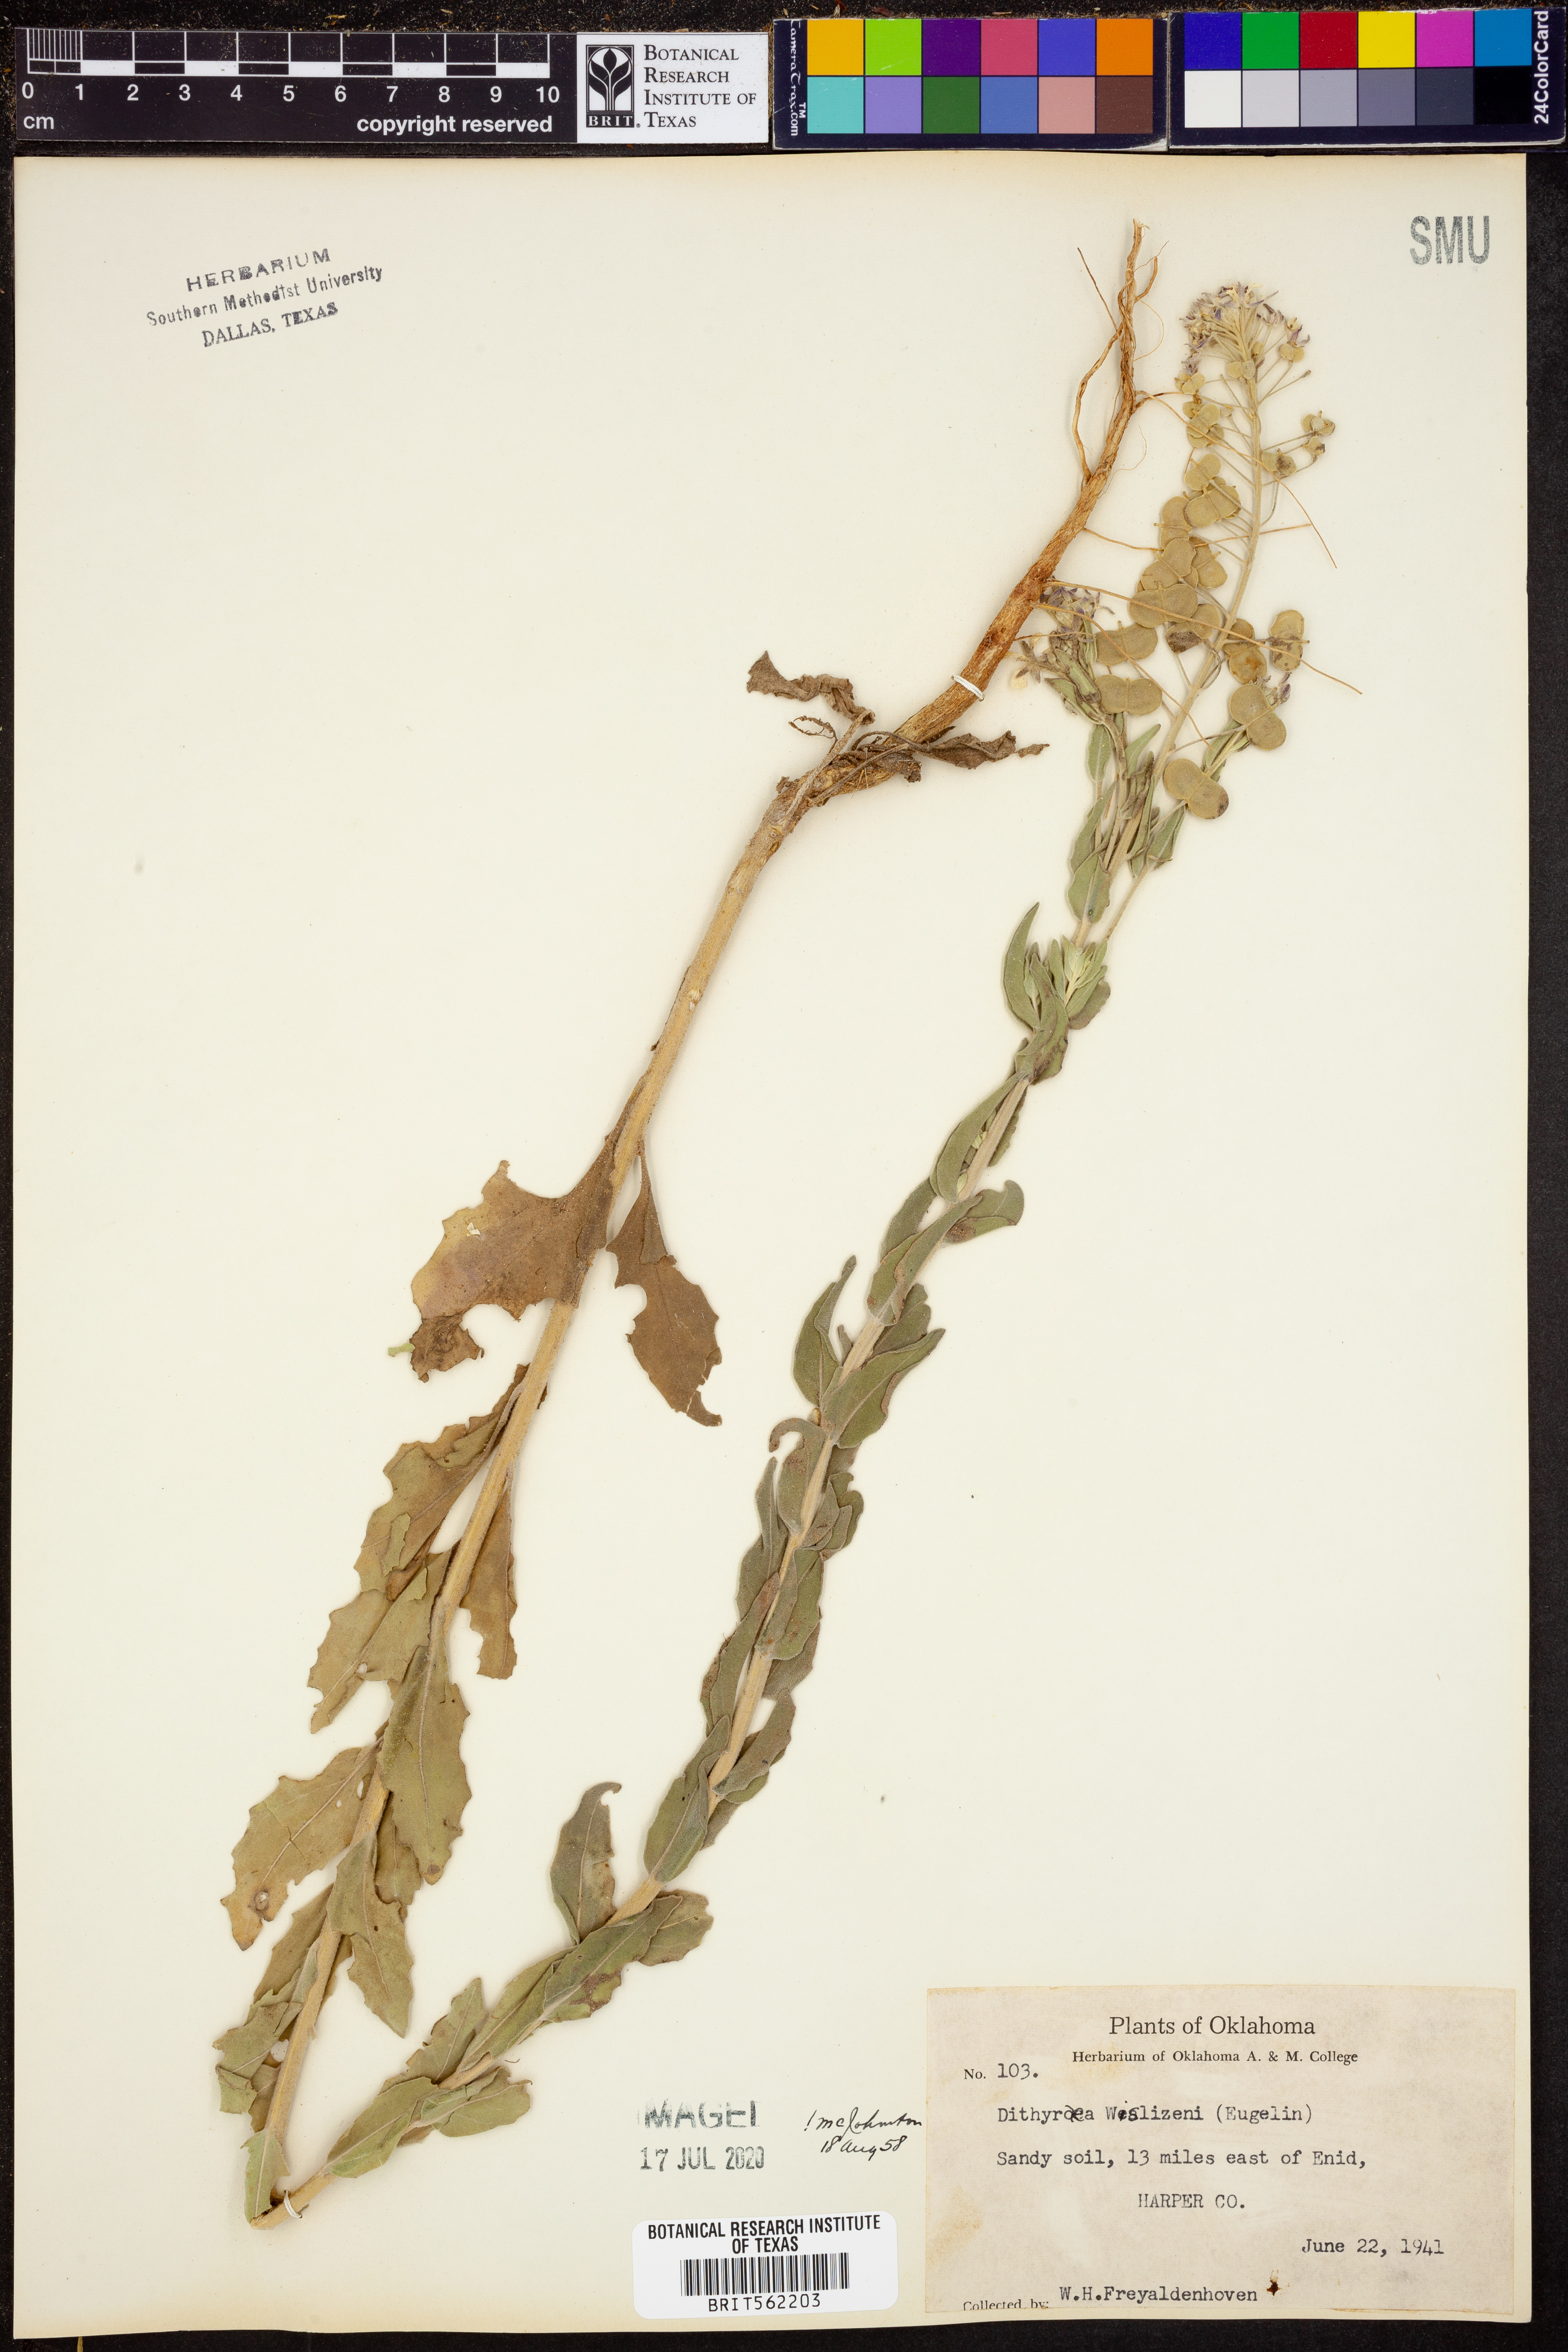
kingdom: Plantae
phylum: Tracheophyta
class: Magnoliopsida
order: Brassicales
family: Brassicaceae
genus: Dimorphocarpa
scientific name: Dimorphocarpa wislizenii
